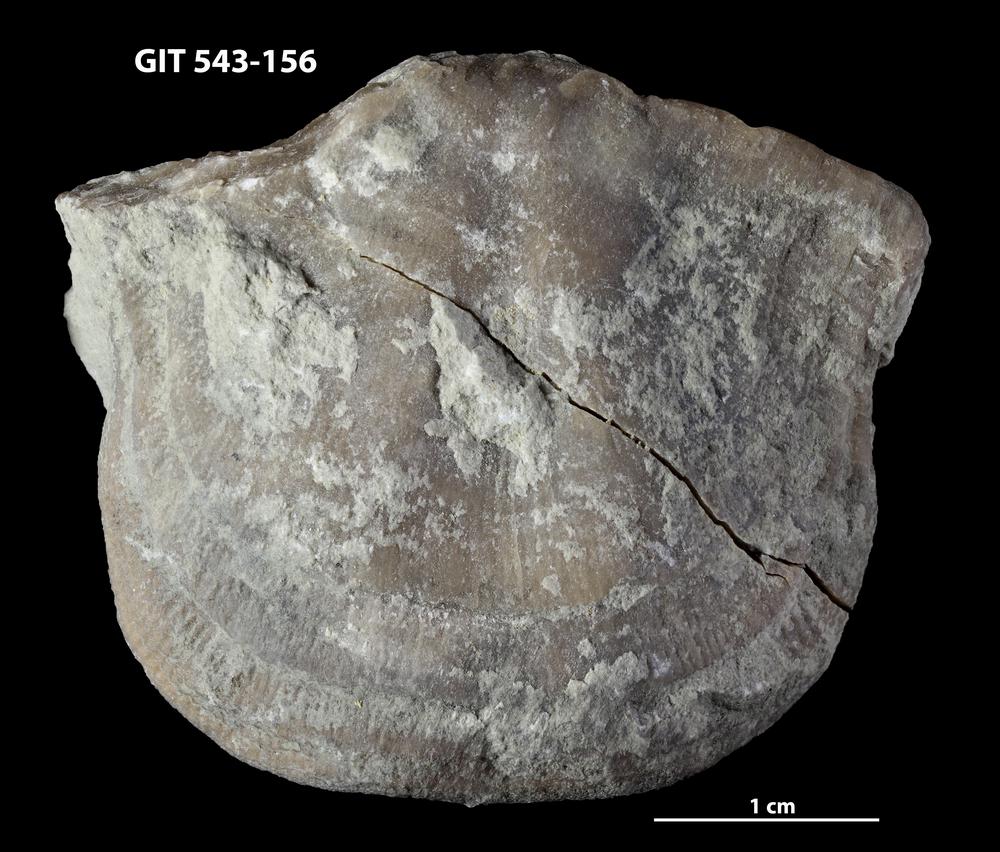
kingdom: Animalia
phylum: Brachiopoda
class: Rhynchonellata
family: Clitambonitidae
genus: Clinambon
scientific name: Clinambon anomalus
